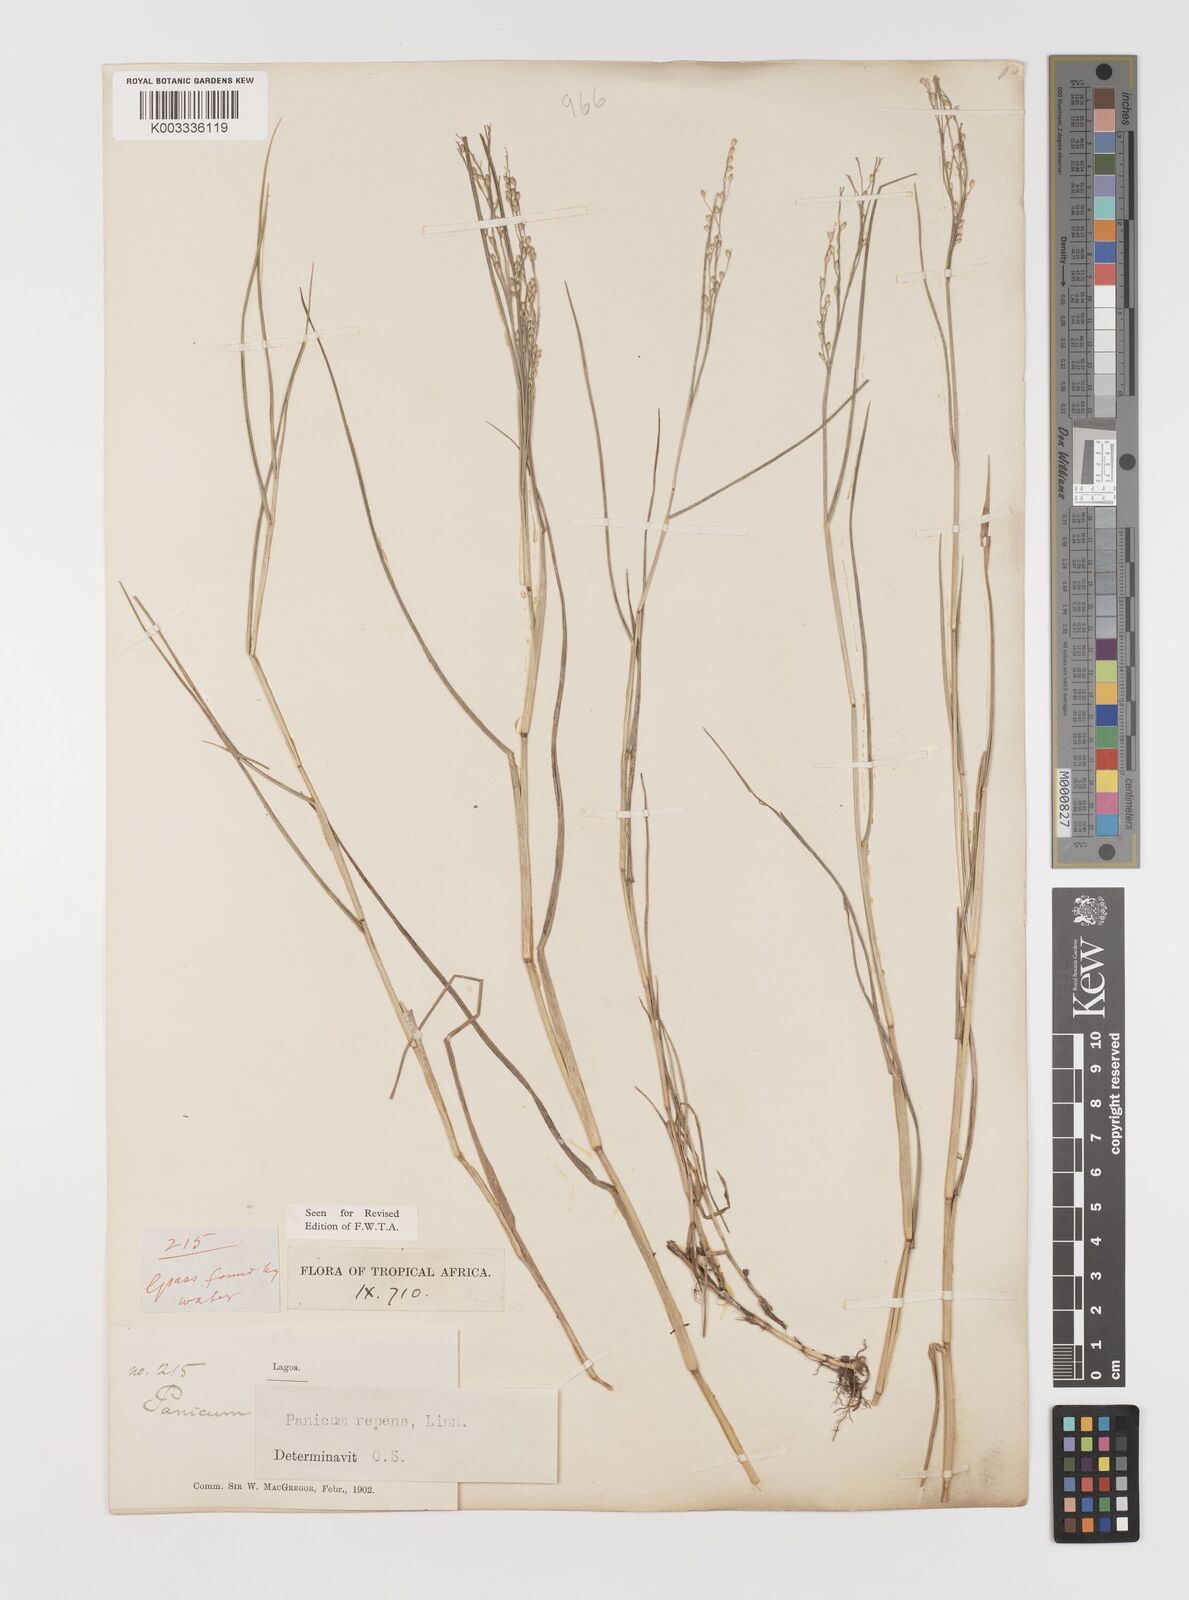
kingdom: Plantae
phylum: Tracheophyta
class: Liliopsida
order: Poales
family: Poaceae
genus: Panicum
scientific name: Panicum repens
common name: Torpedo grass
